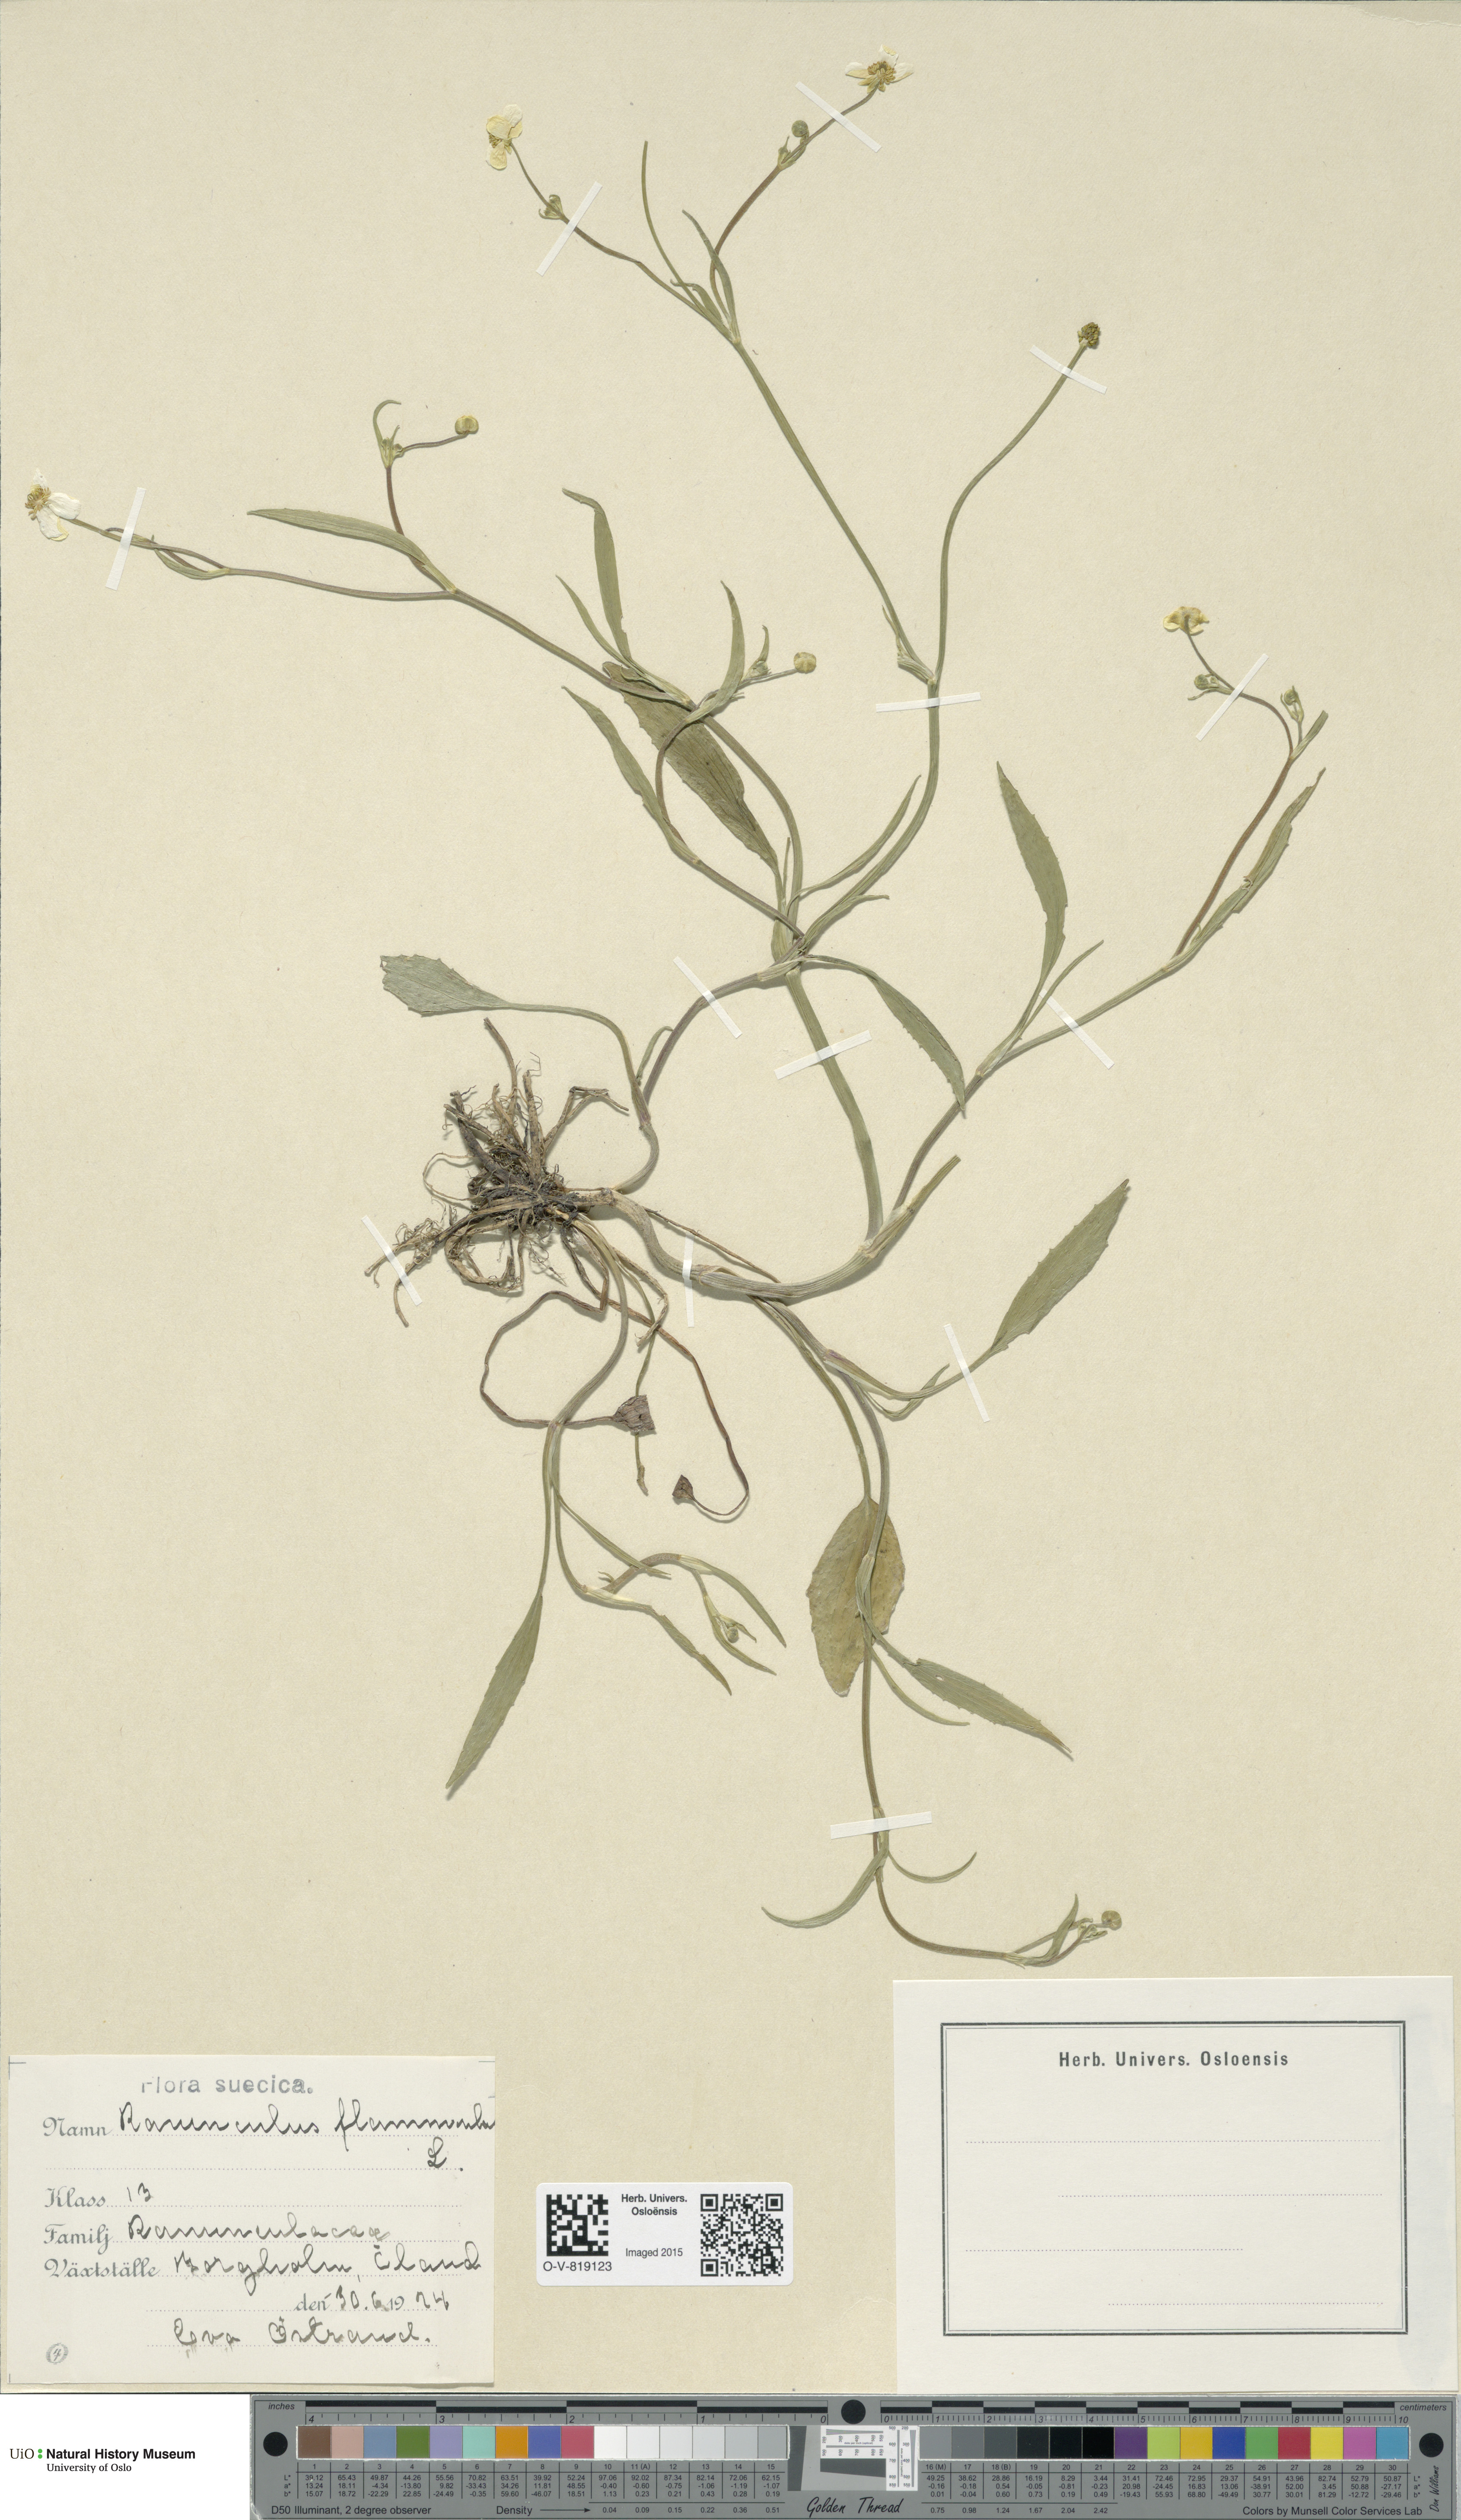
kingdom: Plantae
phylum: Tracheophyta
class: Magnoliopsida
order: Ranunculales
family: Ranunculaceae
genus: Ranunculus
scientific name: Ranunculus flammula
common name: Lesser spearwort
